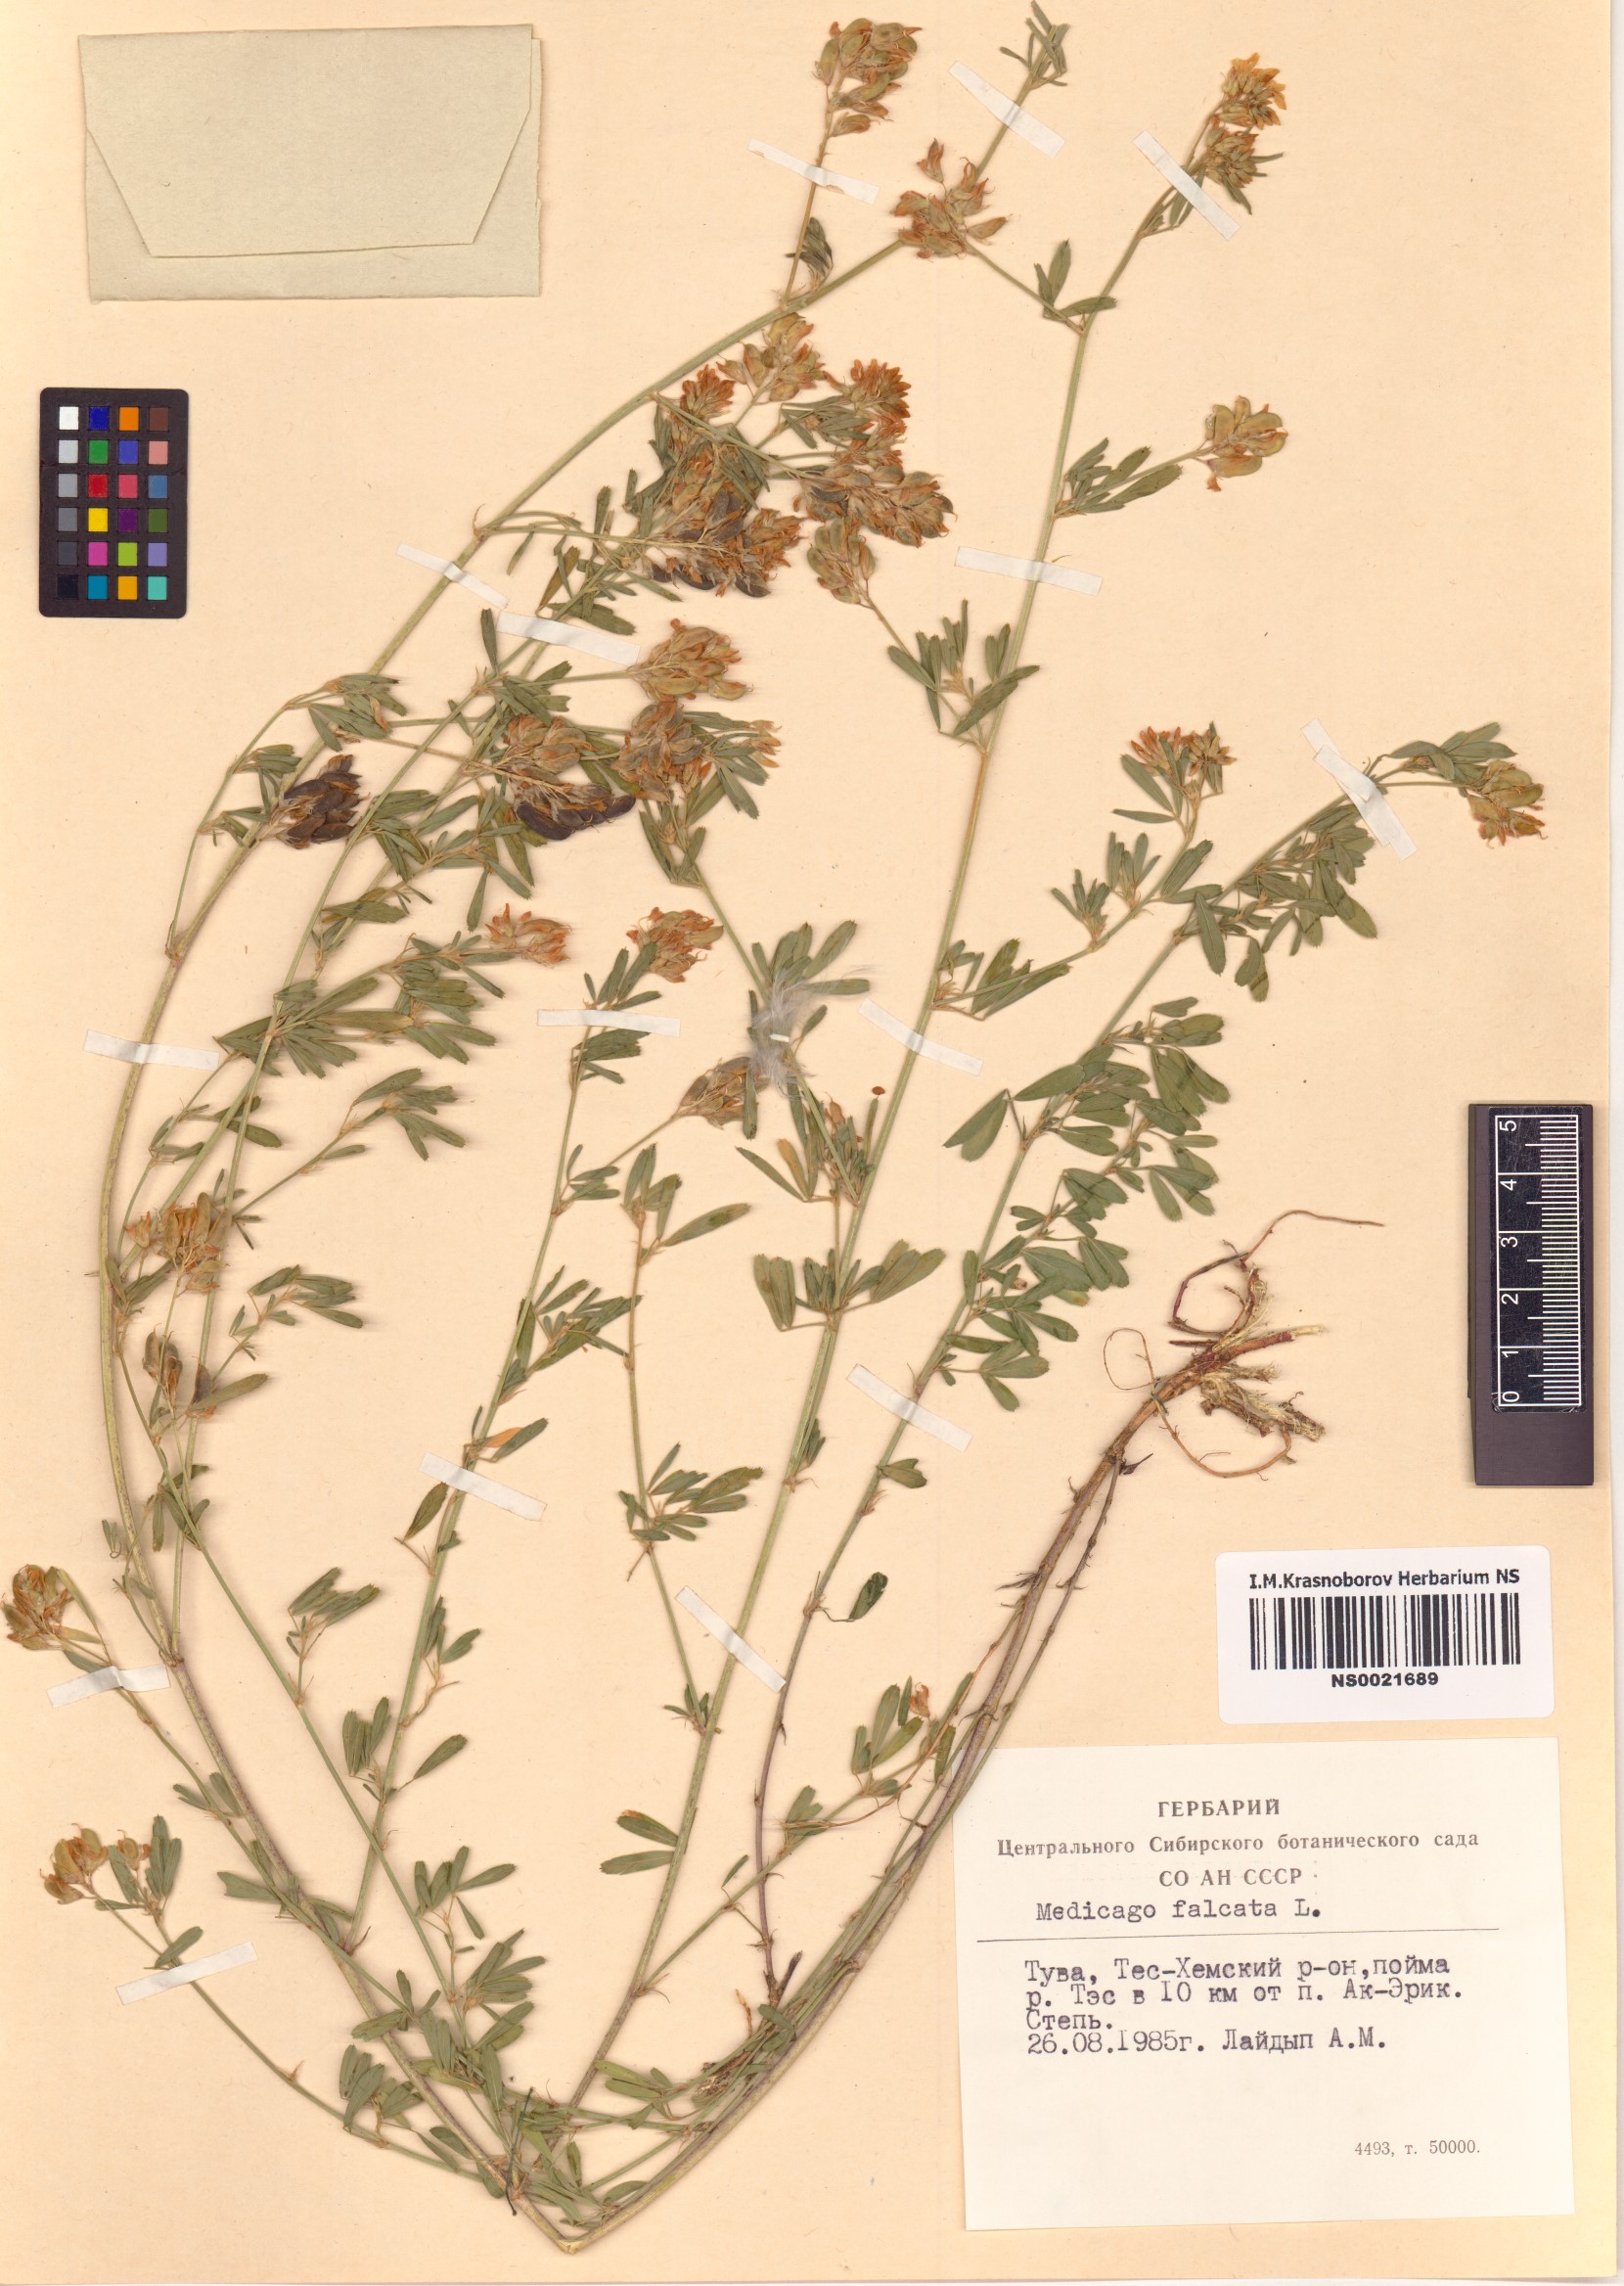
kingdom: Plantae
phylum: Tracheophyta
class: Magnoliopsida
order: Fabales
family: Fabaceae
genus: Medicago
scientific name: Medicago falcata
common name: Sickle medick
